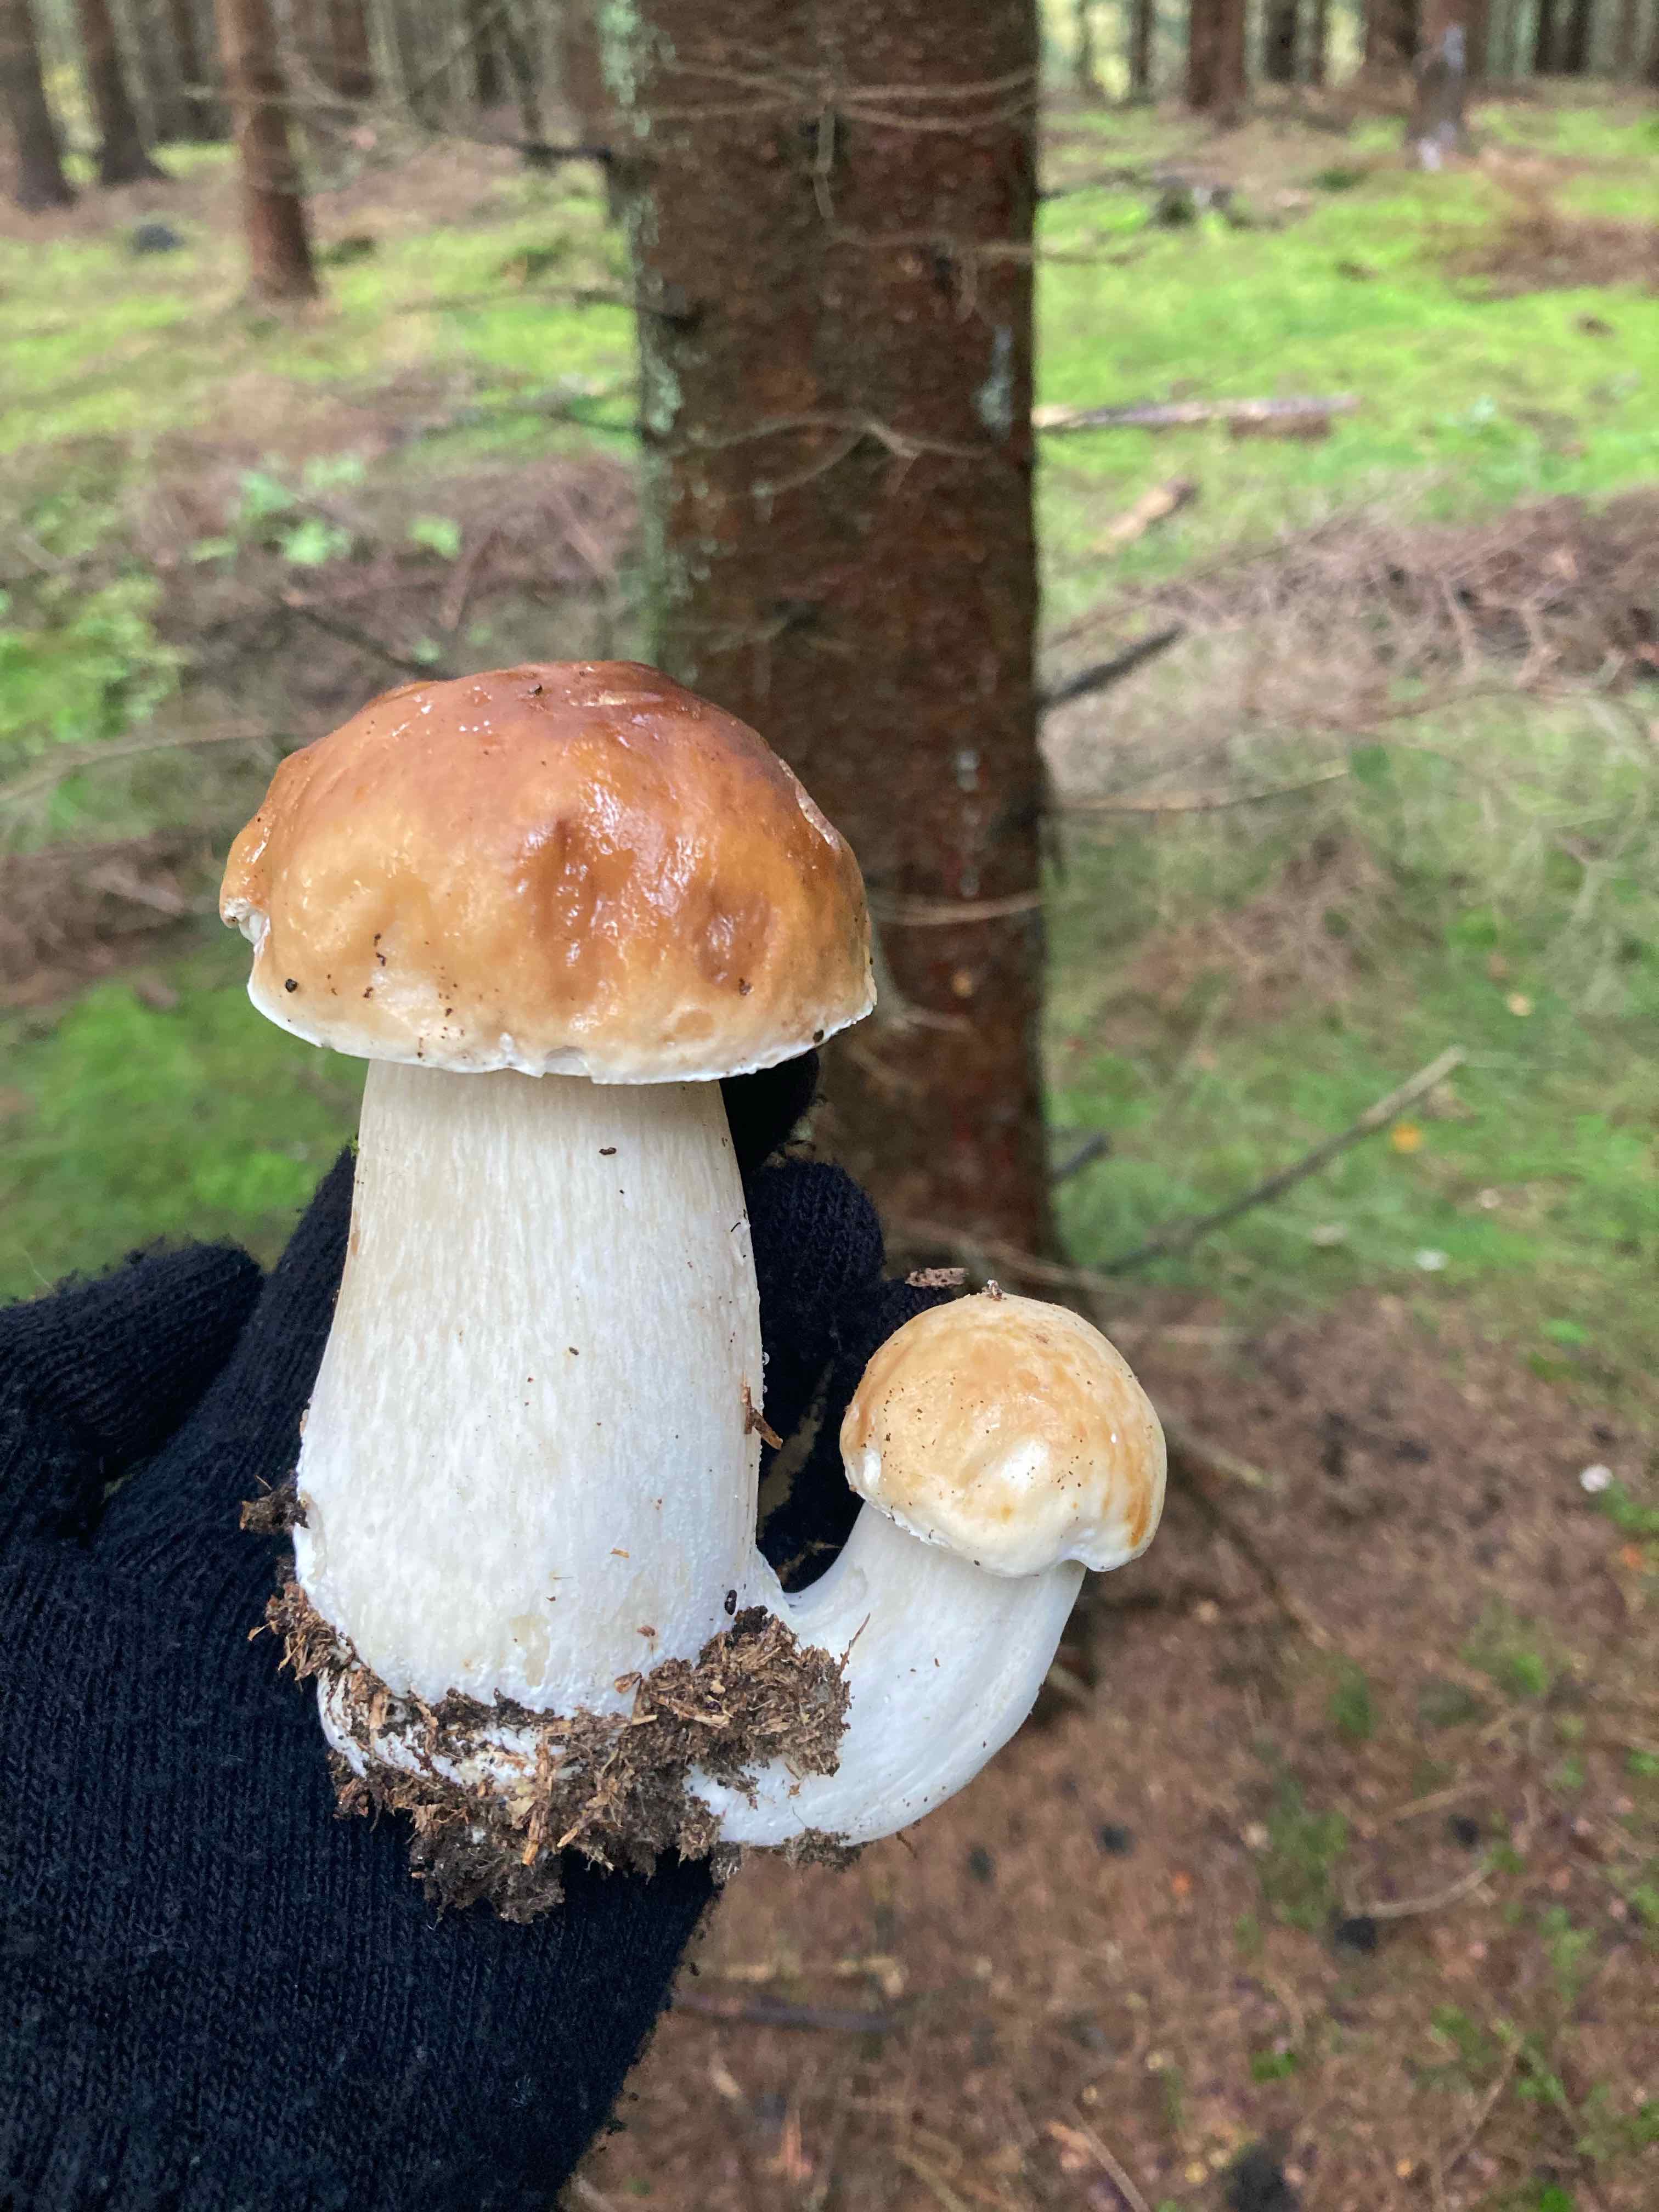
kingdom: Fungi
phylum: Basidiomycota
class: Agaricomycetes
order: Boletales
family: Boletaceae
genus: Boletus
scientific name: Boletus edulis
